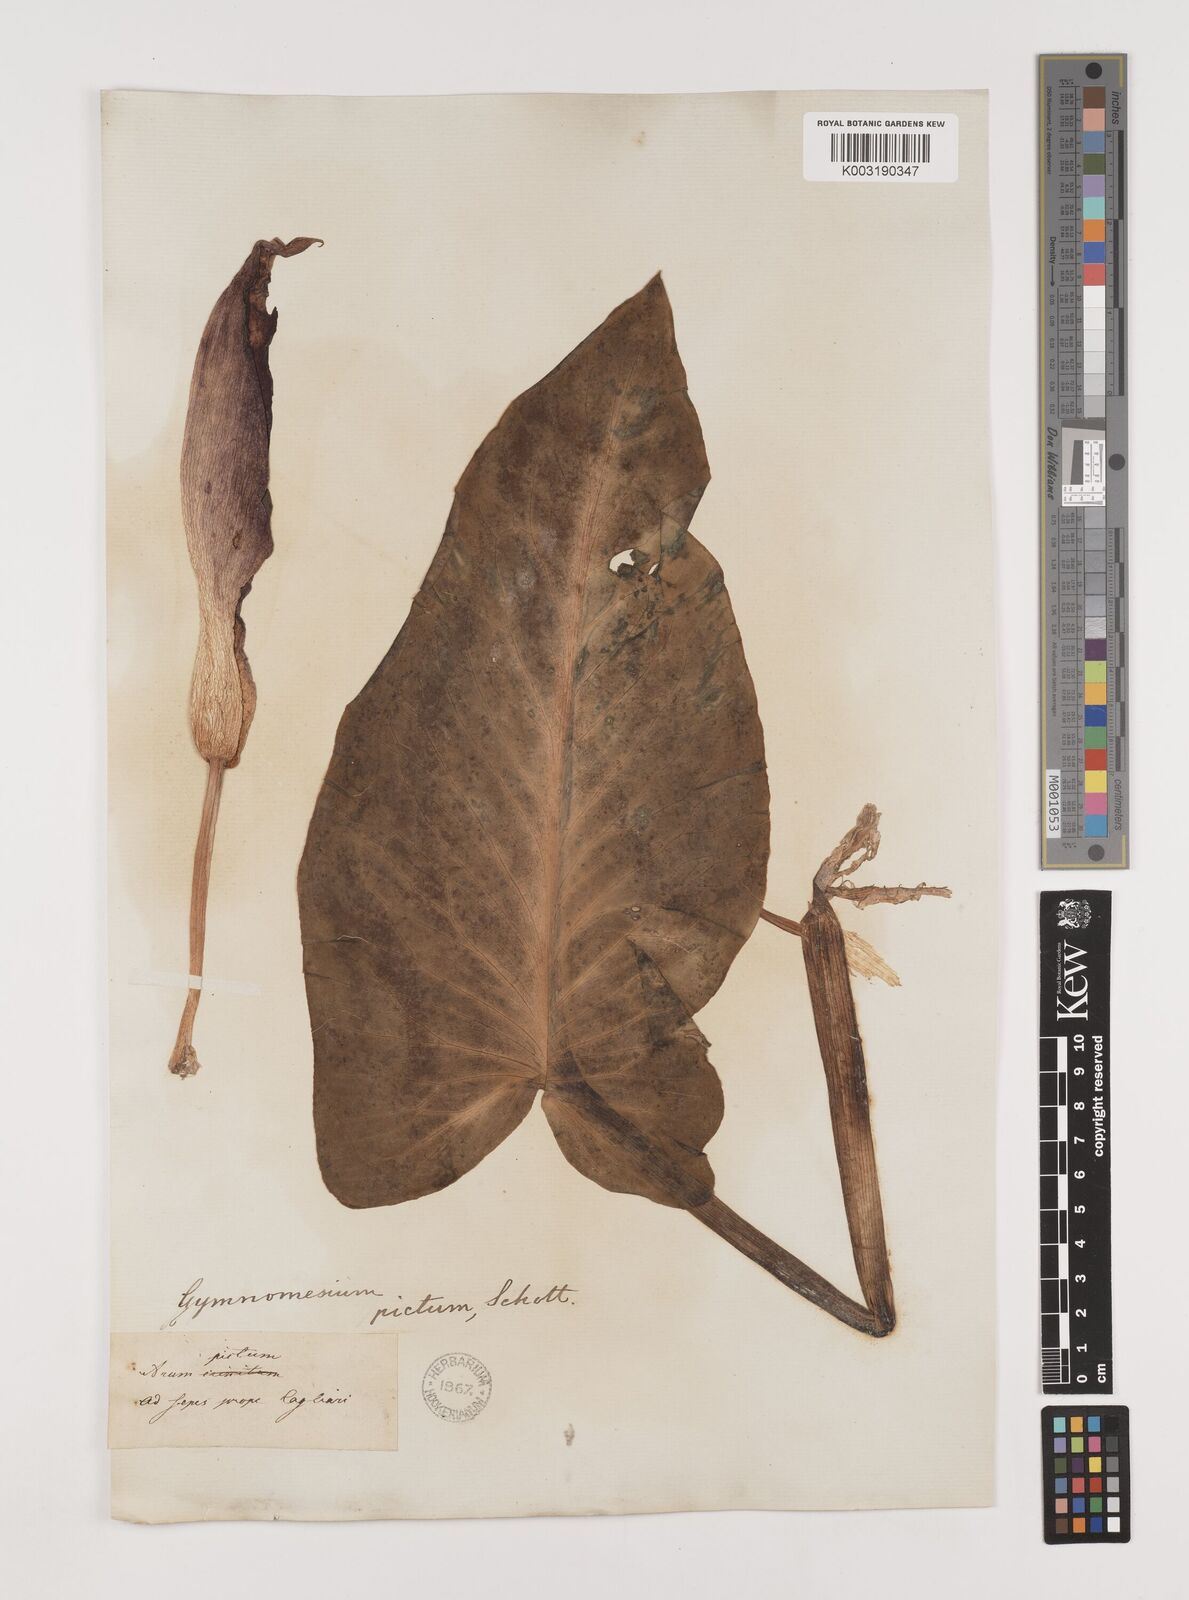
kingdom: Plantae
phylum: Tracheophyta
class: Liliopsida
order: Alismatales
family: Araceae
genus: Arum
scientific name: Arum pictum
